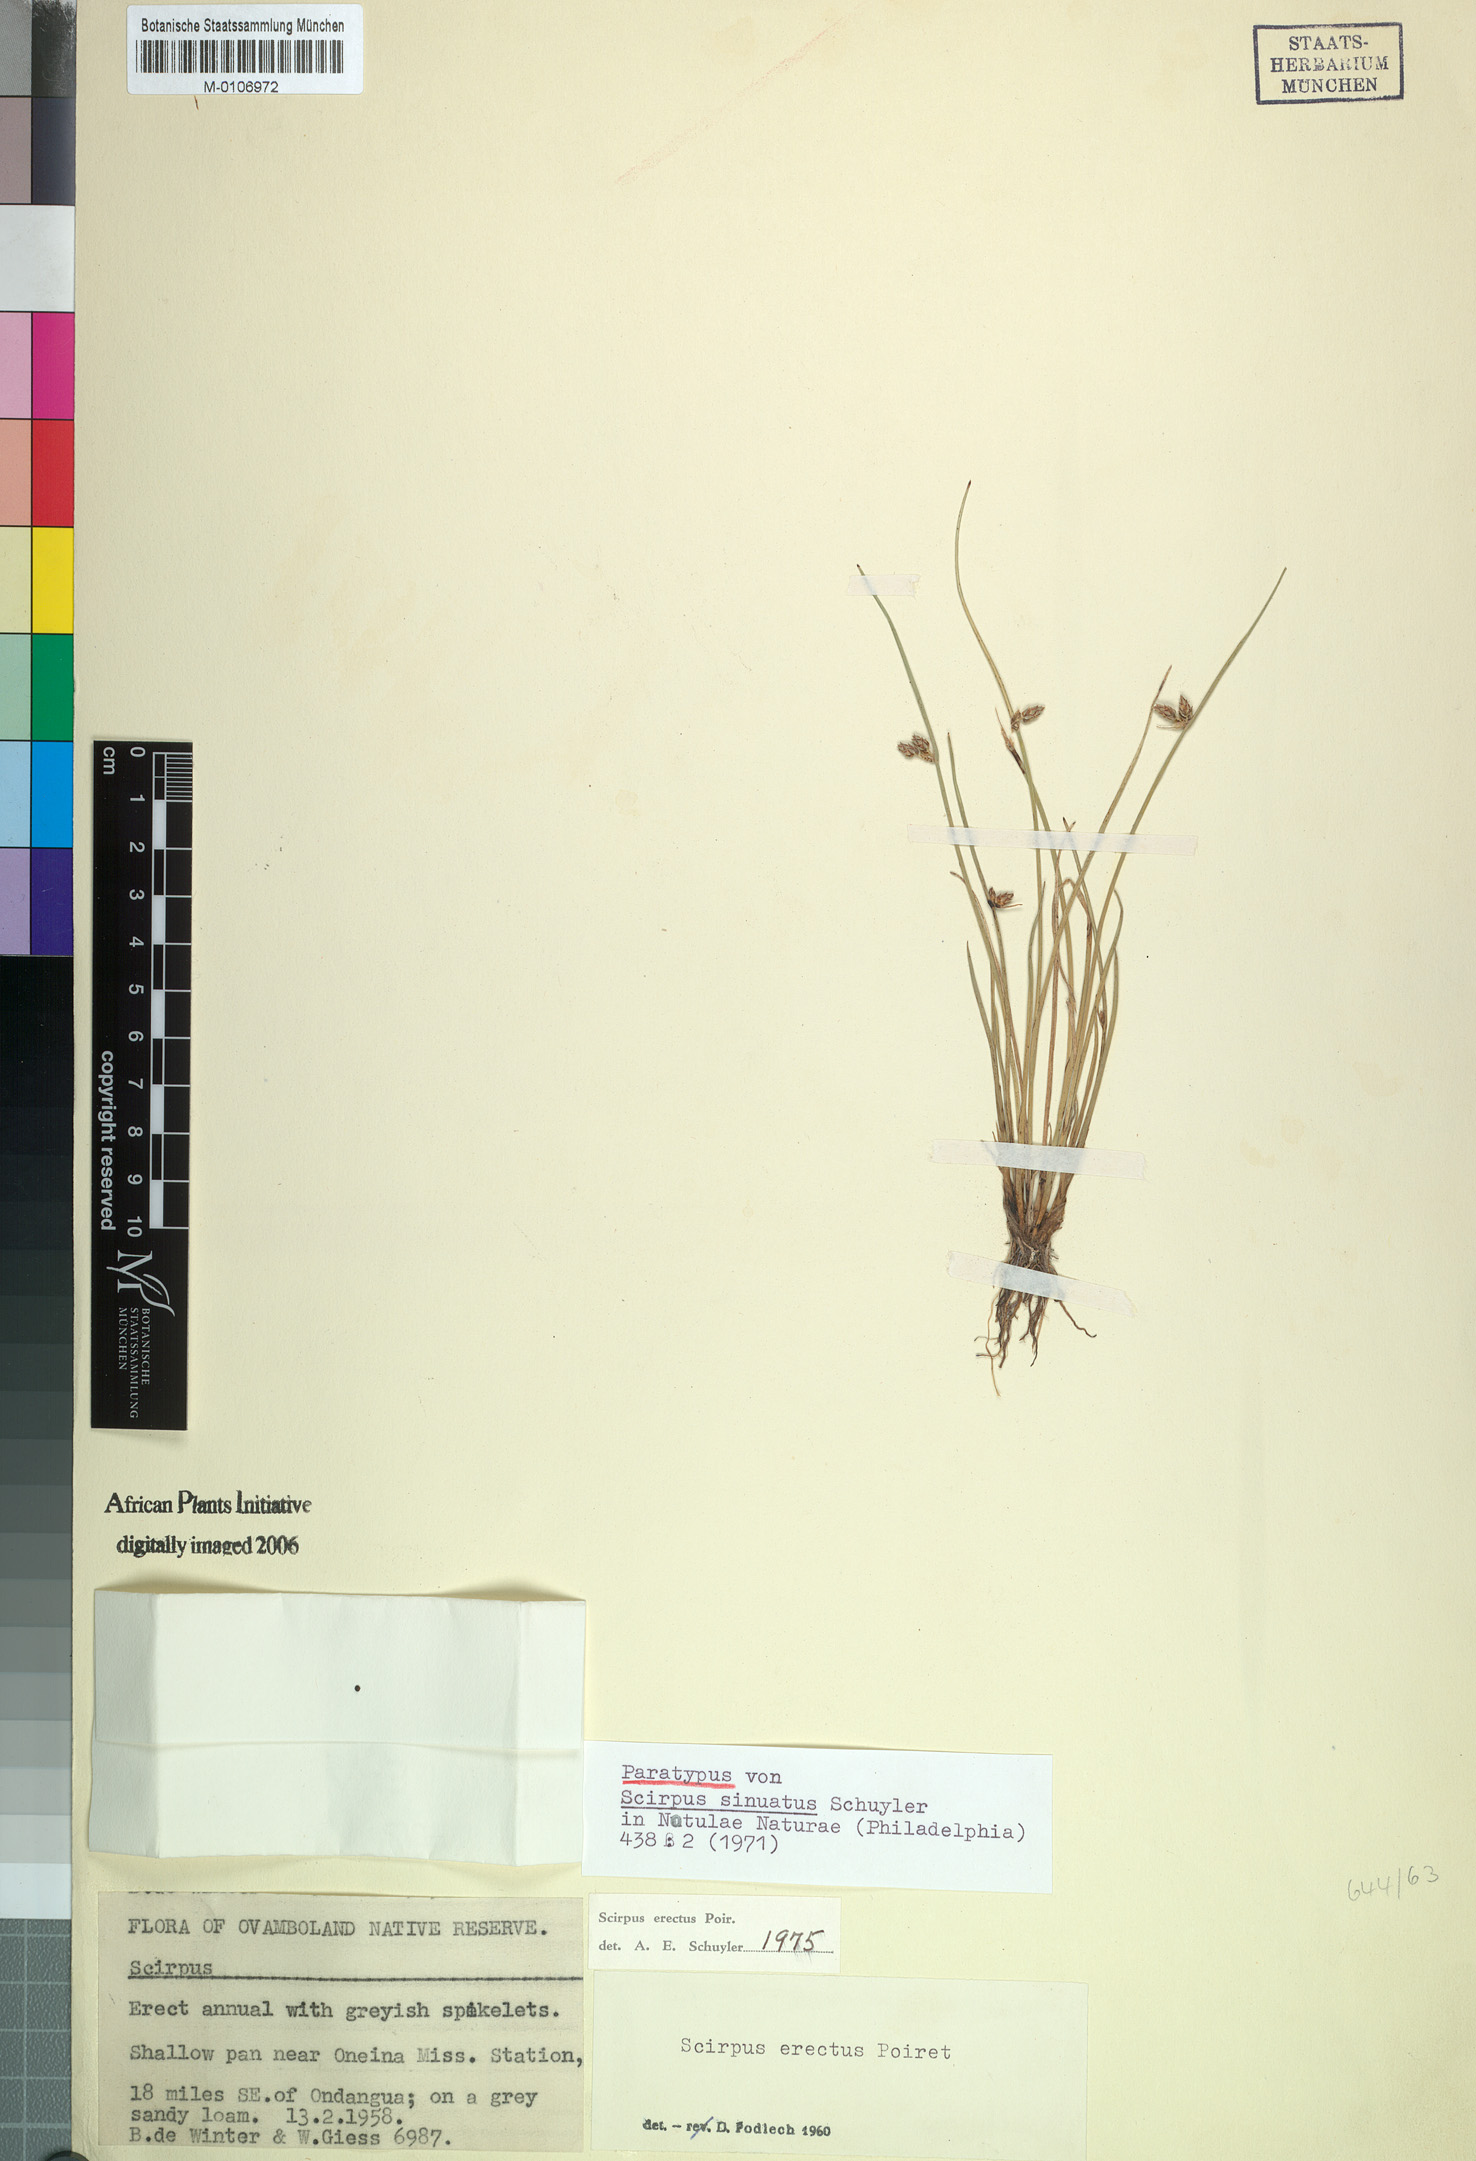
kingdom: Plantae
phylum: Tracheophyta
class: Liliopsida
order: Poales
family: Cyperaceae
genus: Schoenoplectiella
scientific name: Schoenoplectiella erecta
